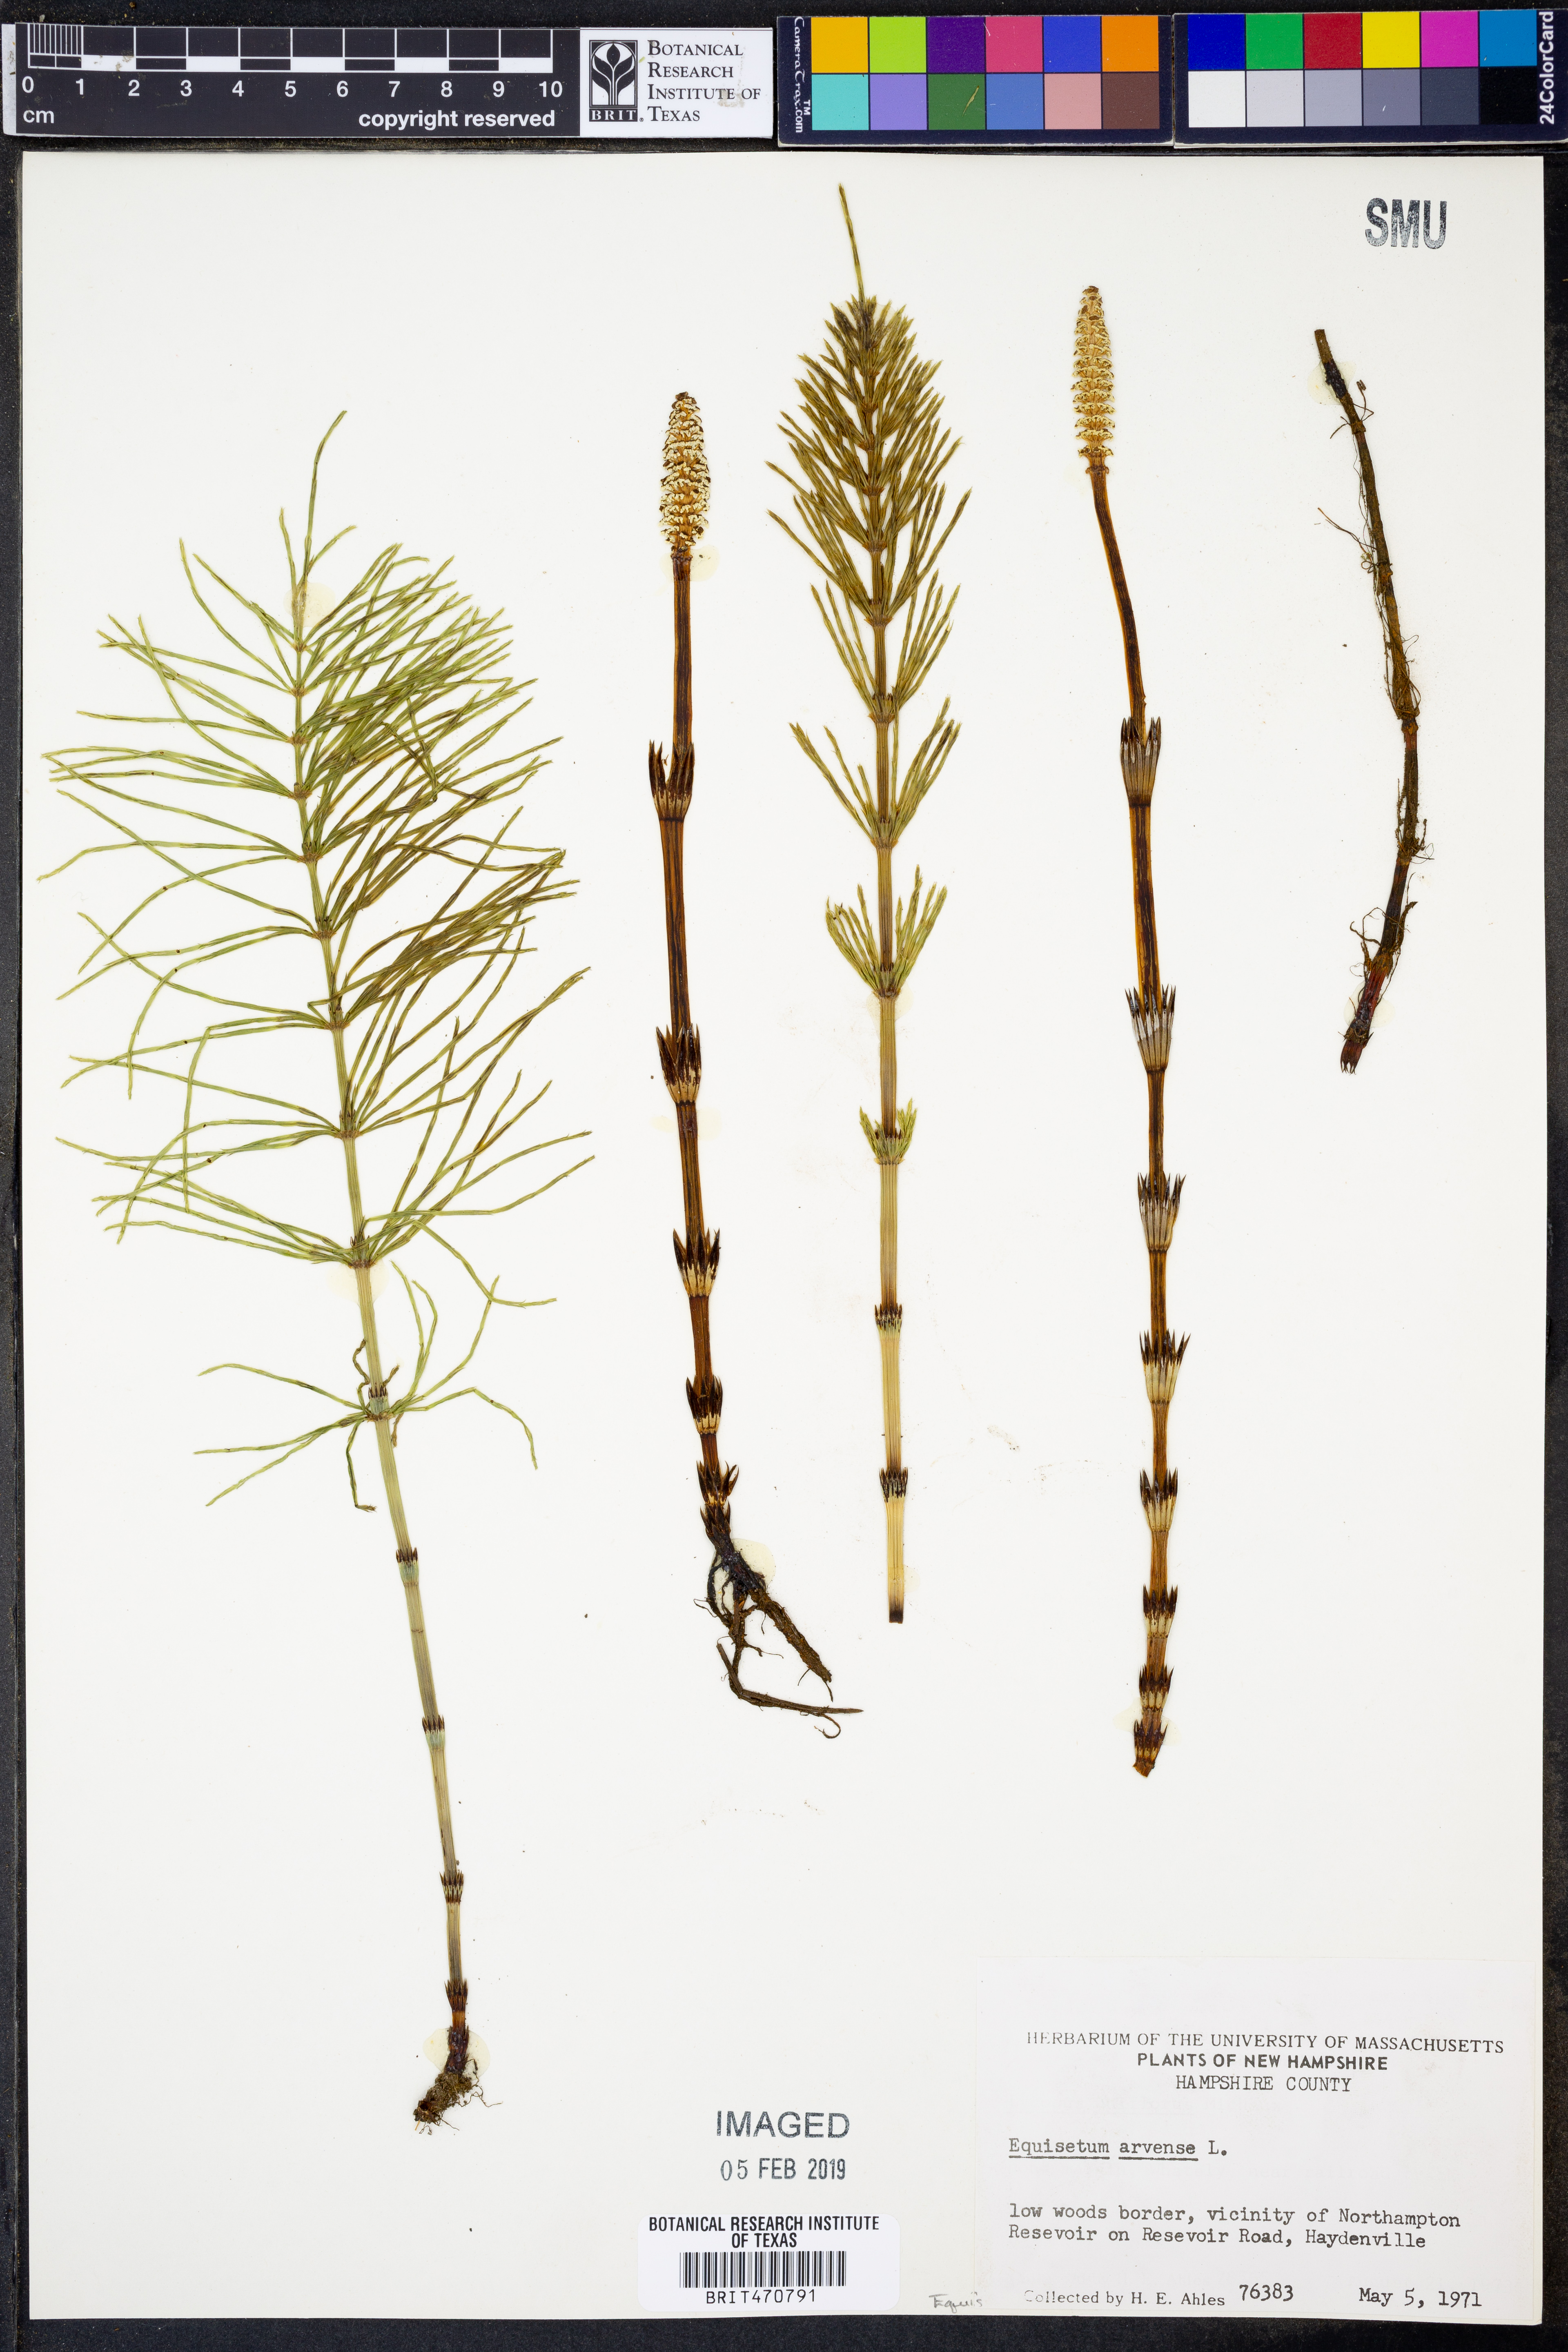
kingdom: Plantae
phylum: Tracheophyta
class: Polypodiopsida
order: Equisetales
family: Equisetaceae
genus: Equisetum
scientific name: Equisetum arvense
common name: Field horsetail
